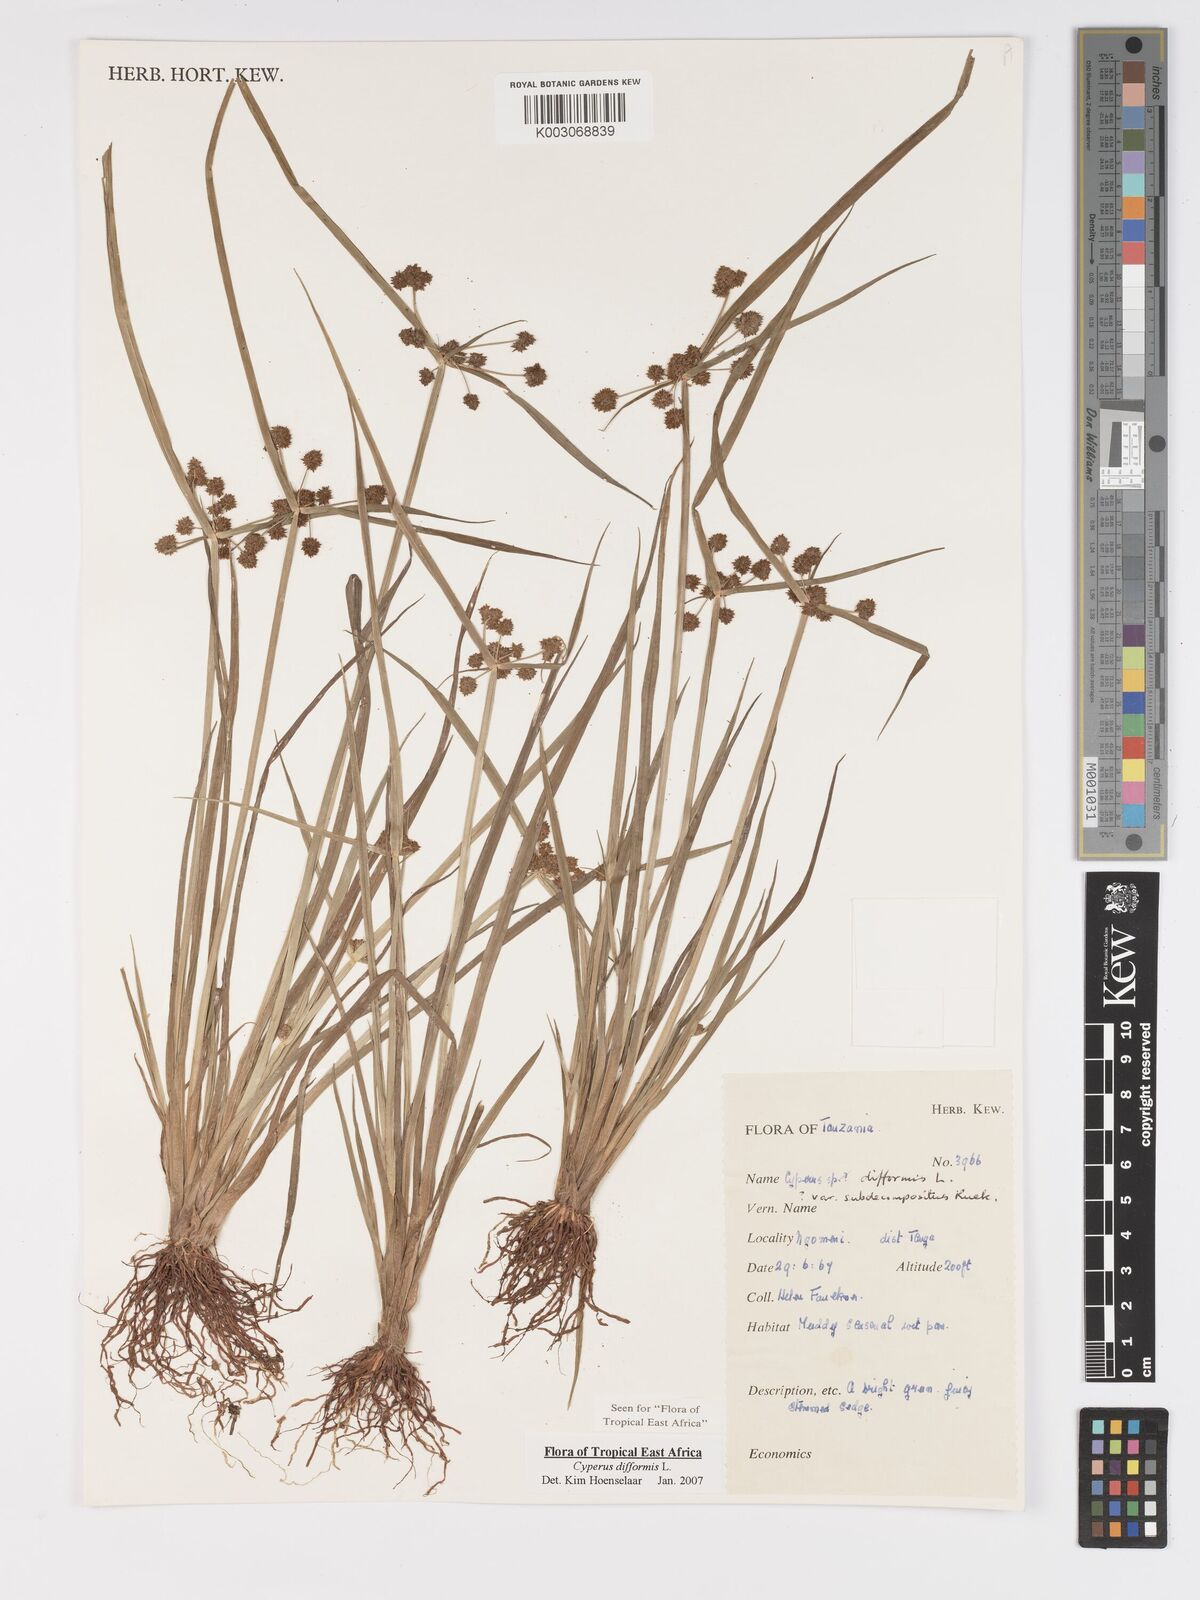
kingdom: Plantae
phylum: Tracheophyta
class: Liliopsida
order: Poales
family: Cyperaceae
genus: Cyperus
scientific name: Cyperus difformis
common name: Variable flatsedge
